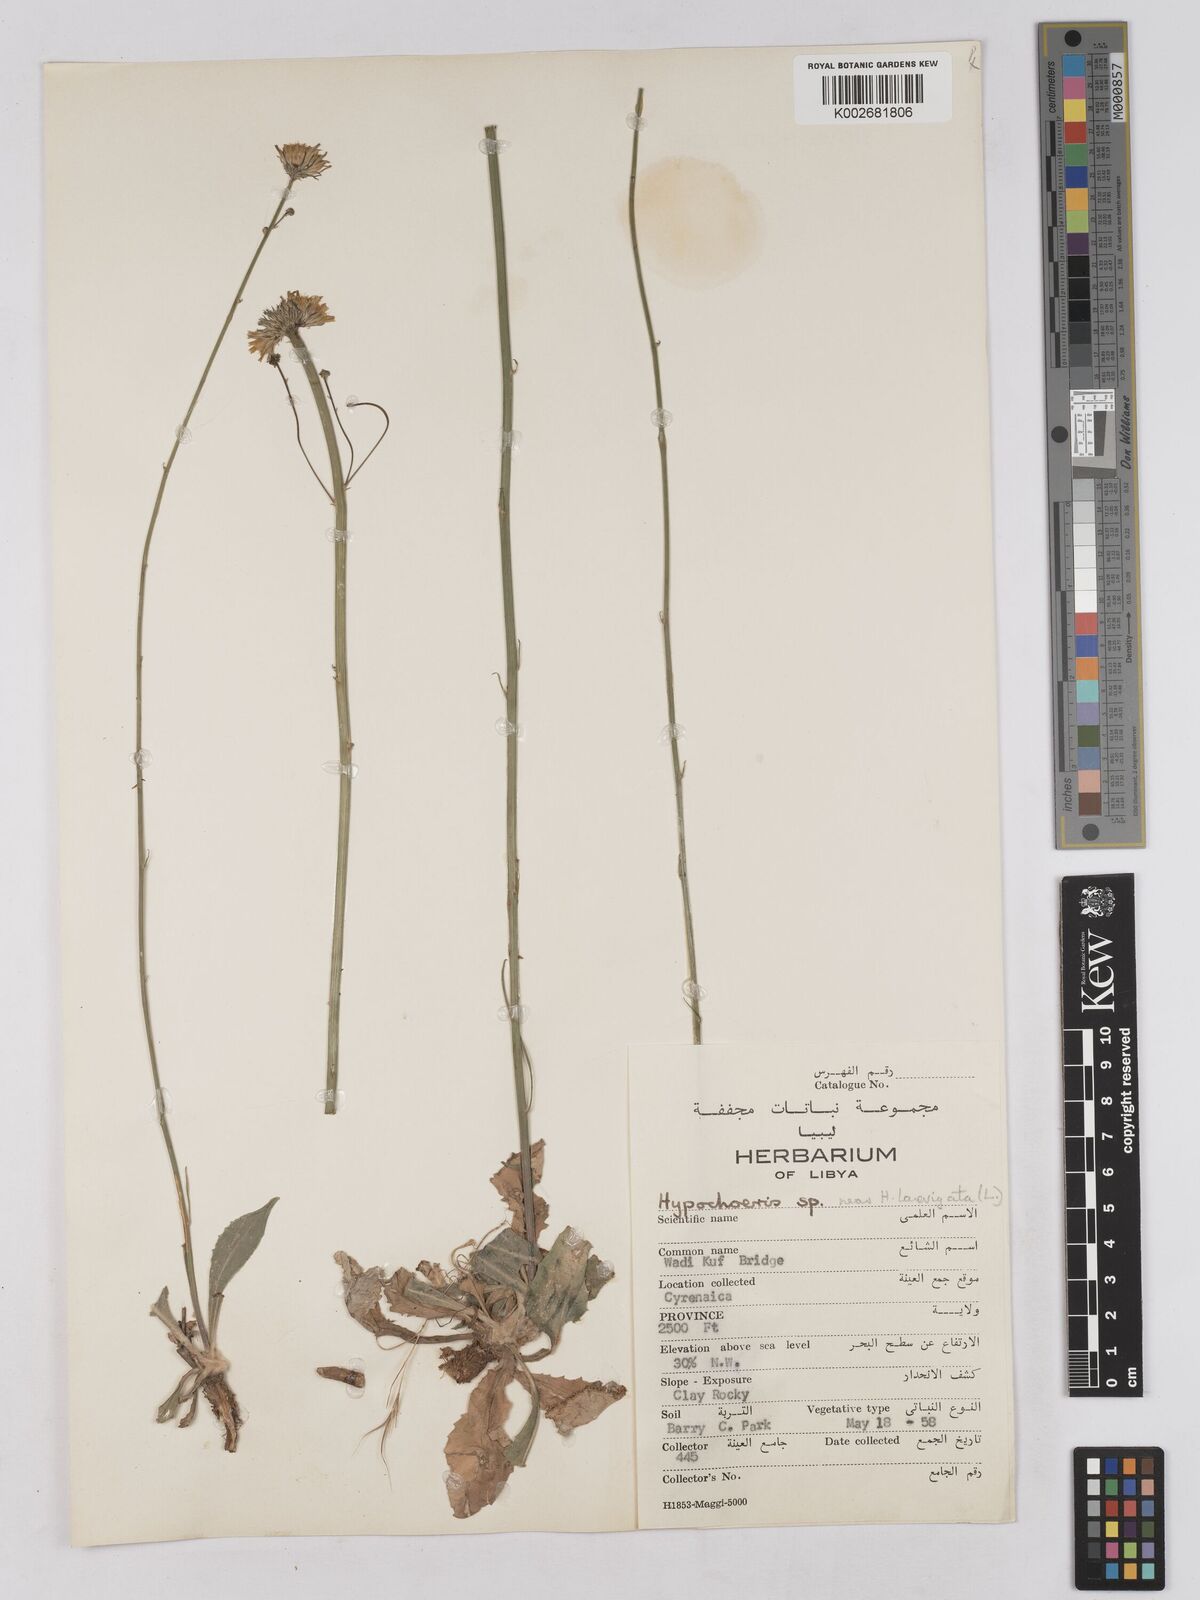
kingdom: Plantae
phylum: Tracheophyta
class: Magnoliopsida
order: Asterales
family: Asteraceae
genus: Tolpis
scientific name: Tolpis virgata
